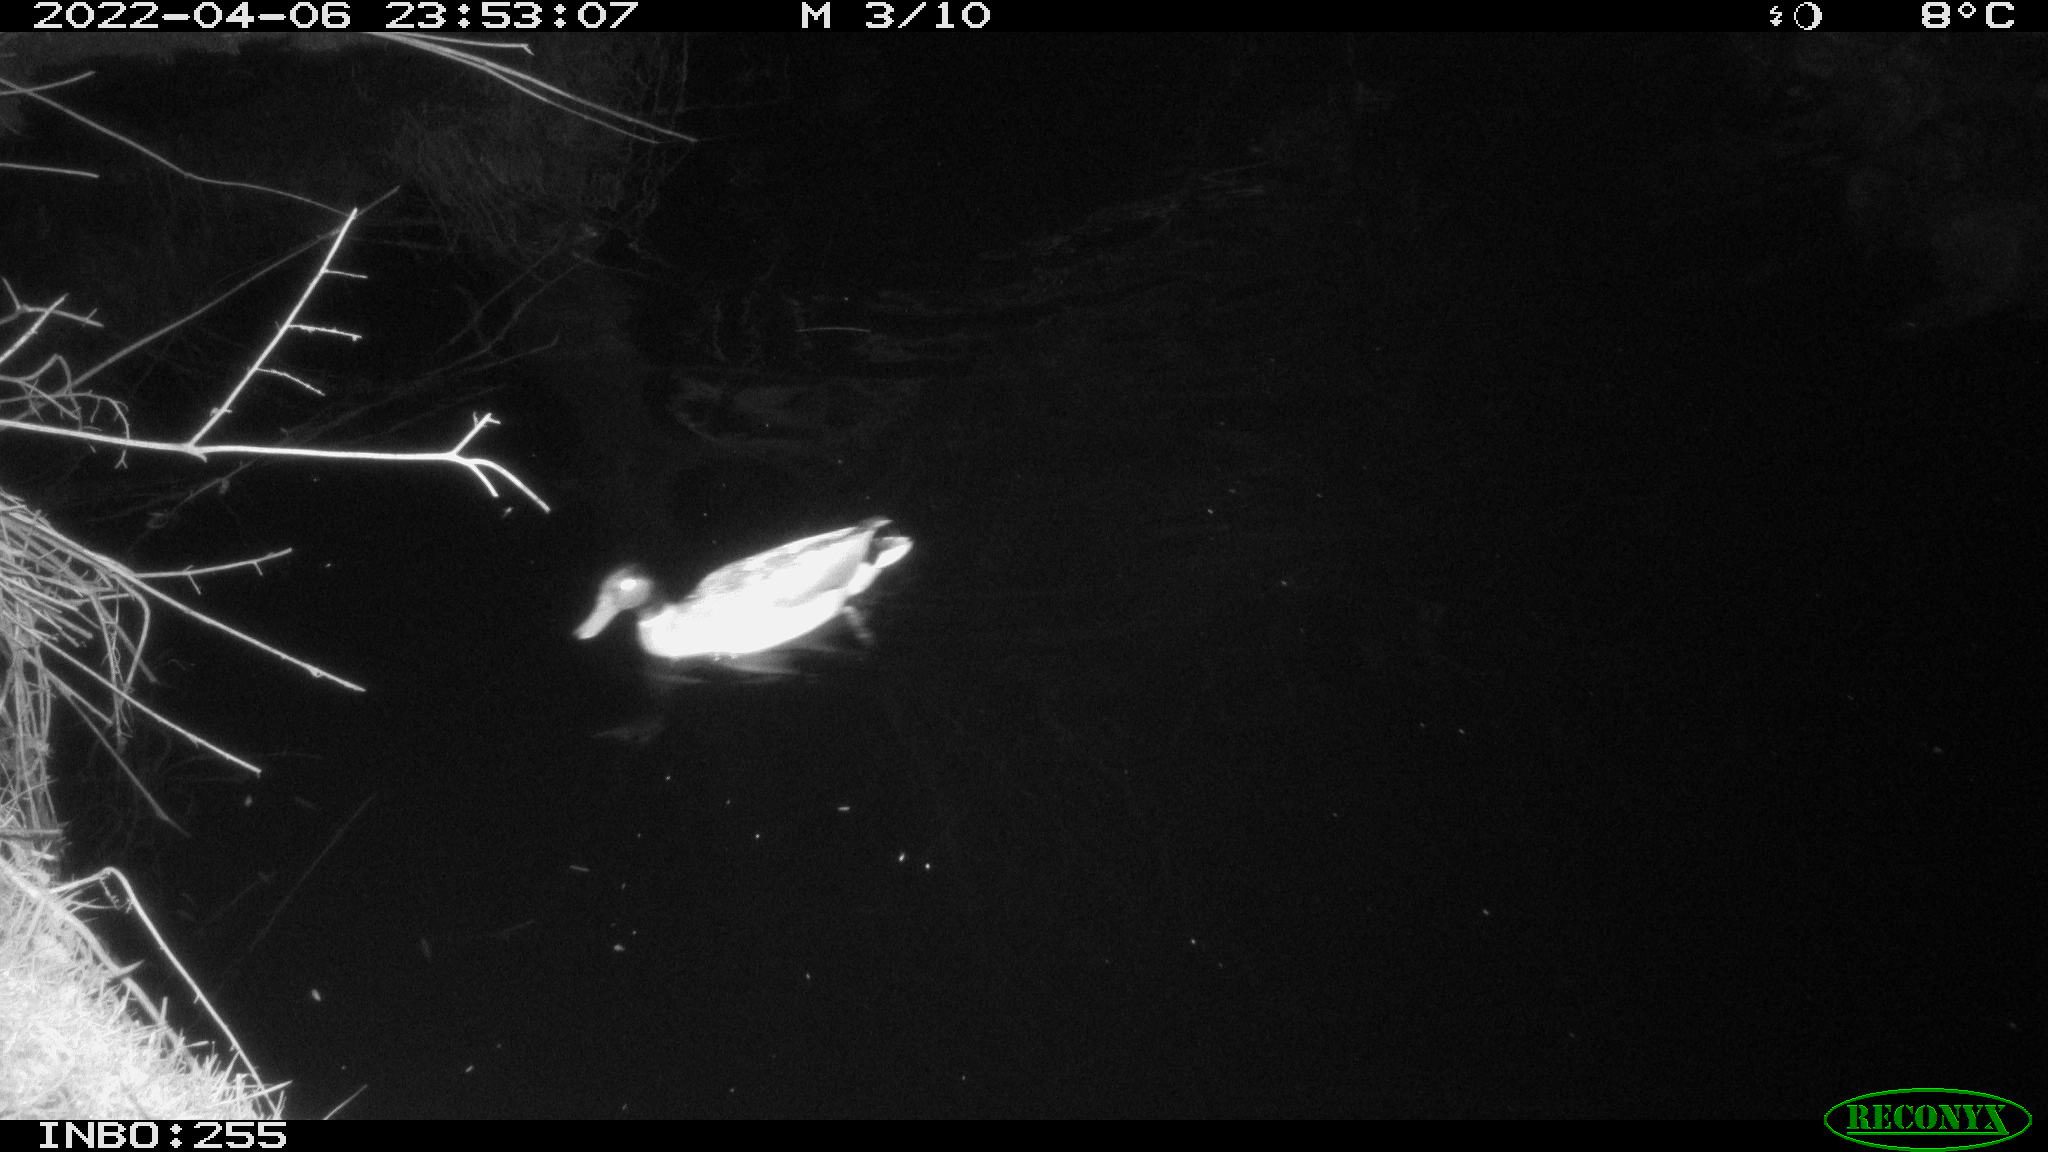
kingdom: Animalia
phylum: Chordata
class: Aves
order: Anseriformes
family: Anatidae
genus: Anas
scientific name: Anas platyrhynchos
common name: Mallard
